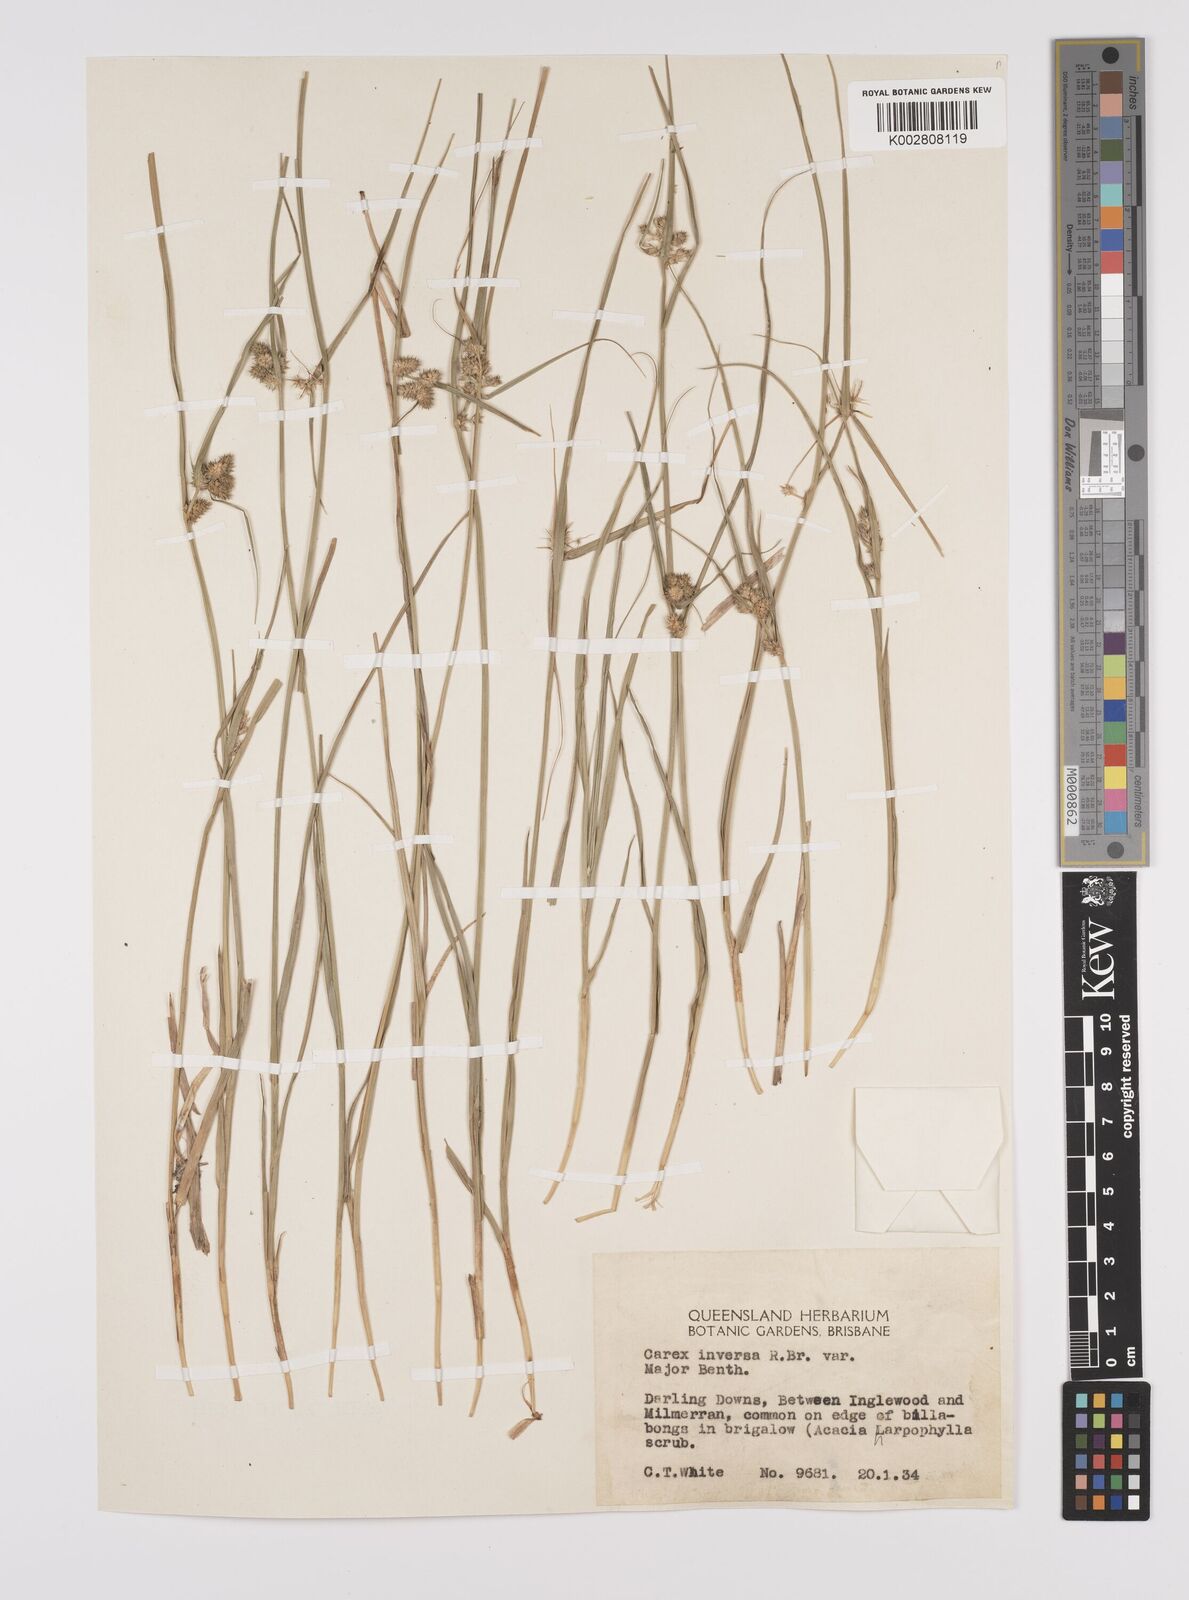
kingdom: Plantae
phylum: Tracheophyta
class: Liliopsida
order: Poales
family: Cyperaceae
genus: Carex
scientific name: Carex inversa
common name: Knob sedge
